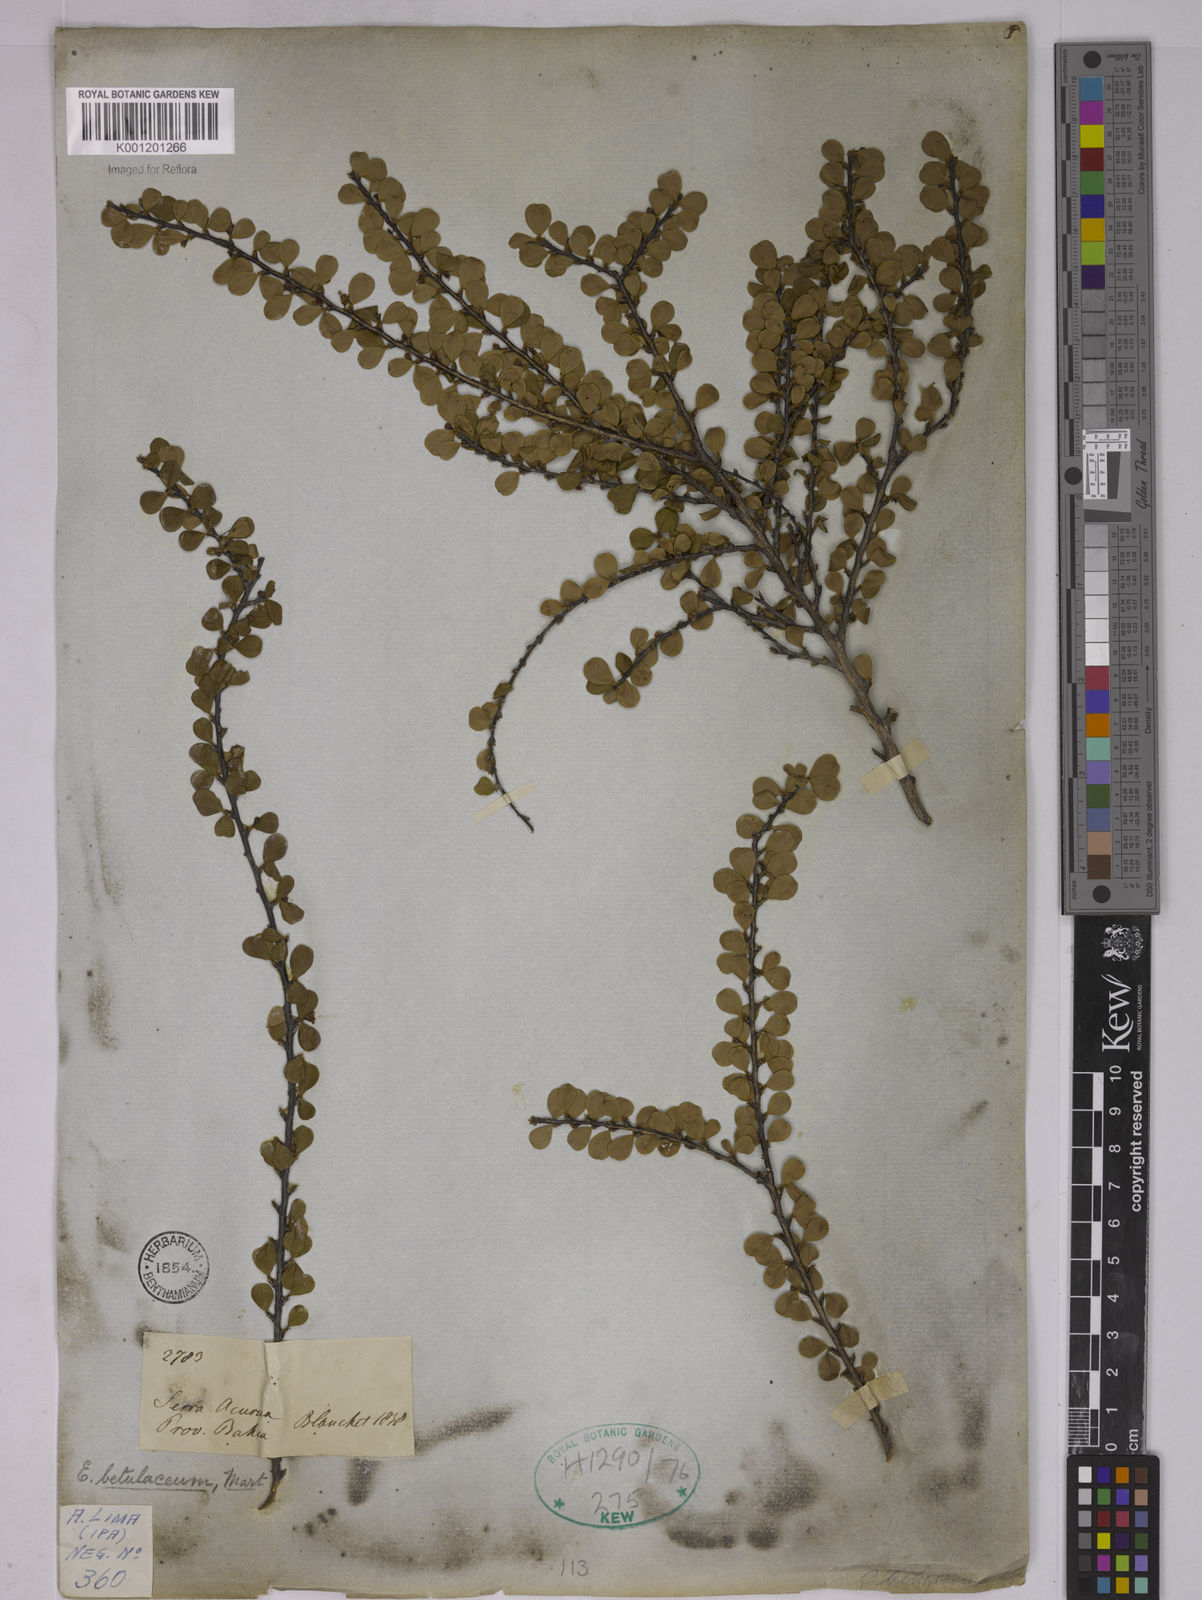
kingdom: Plantae
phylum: Tracheophyta
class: Magnoliopsida
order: Malpighiales
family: Erythroxylaceae
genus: Erythroxylum
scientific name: Erythroxylum betulaceum
